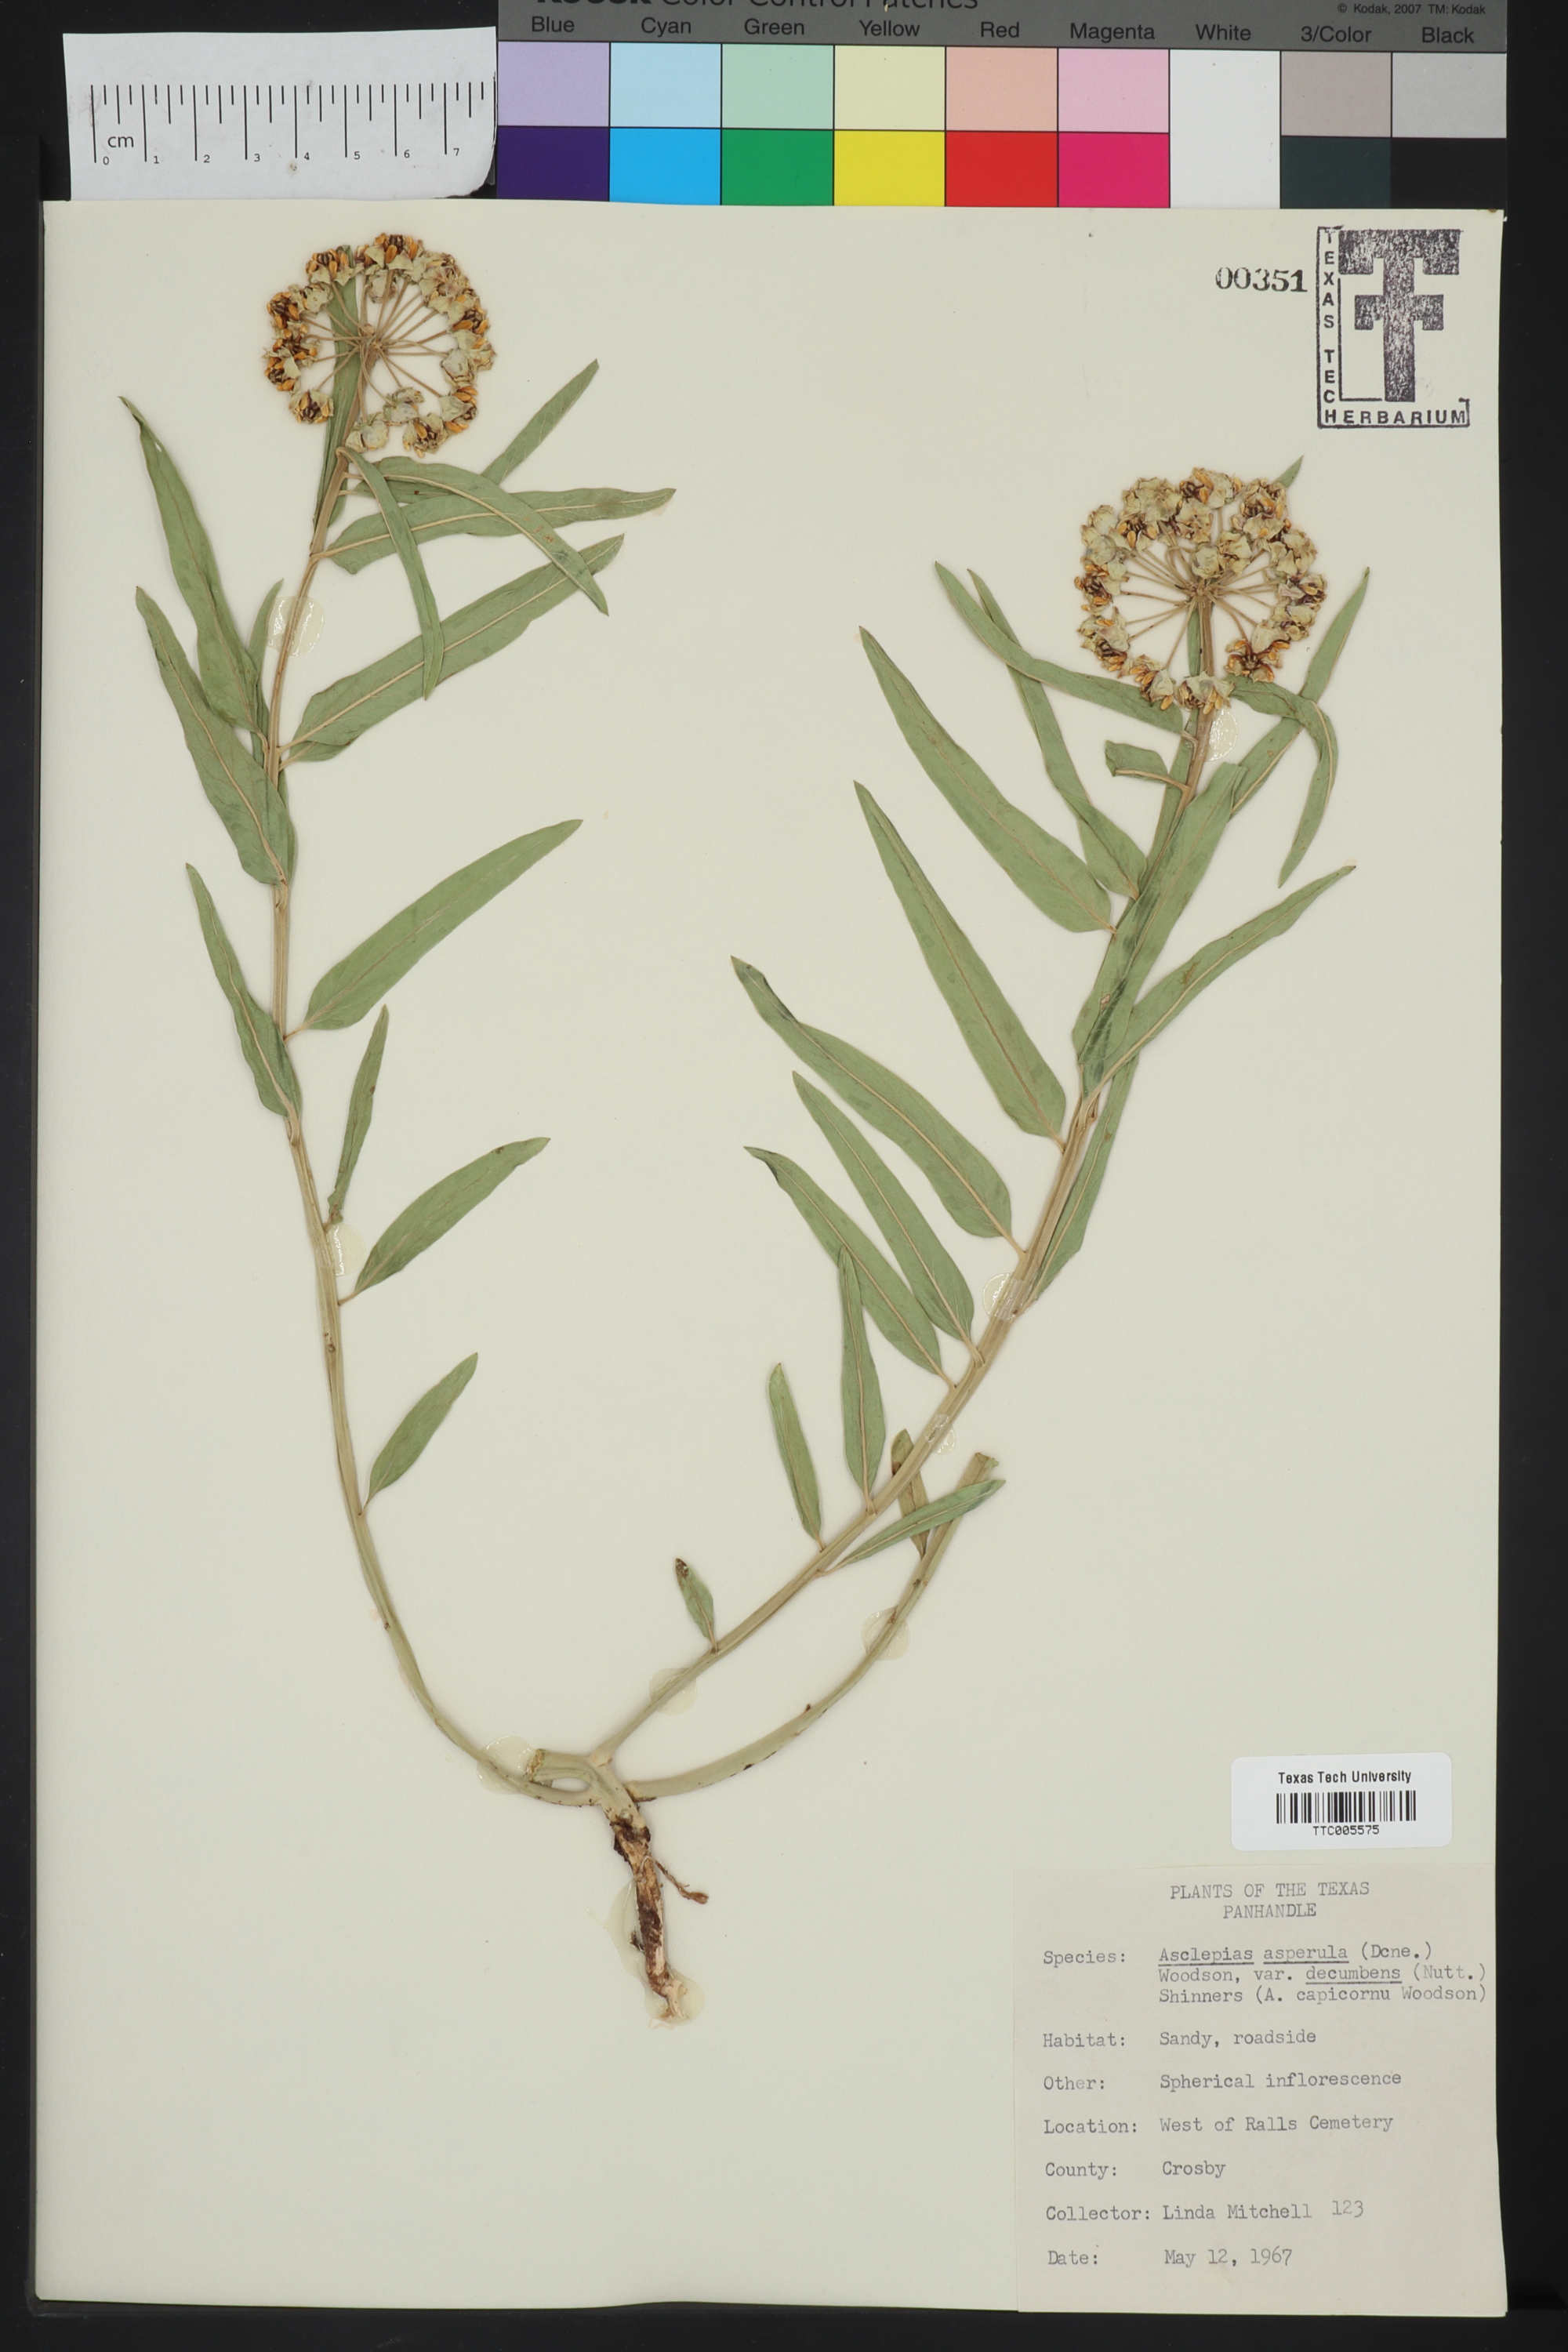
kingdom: Plantae
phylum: Tracheophyta
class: Magnoliopsida
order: Gentianales
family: Apocynaceae
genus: Asclepias
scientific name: Asclepias asperula
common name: Antelope horns
